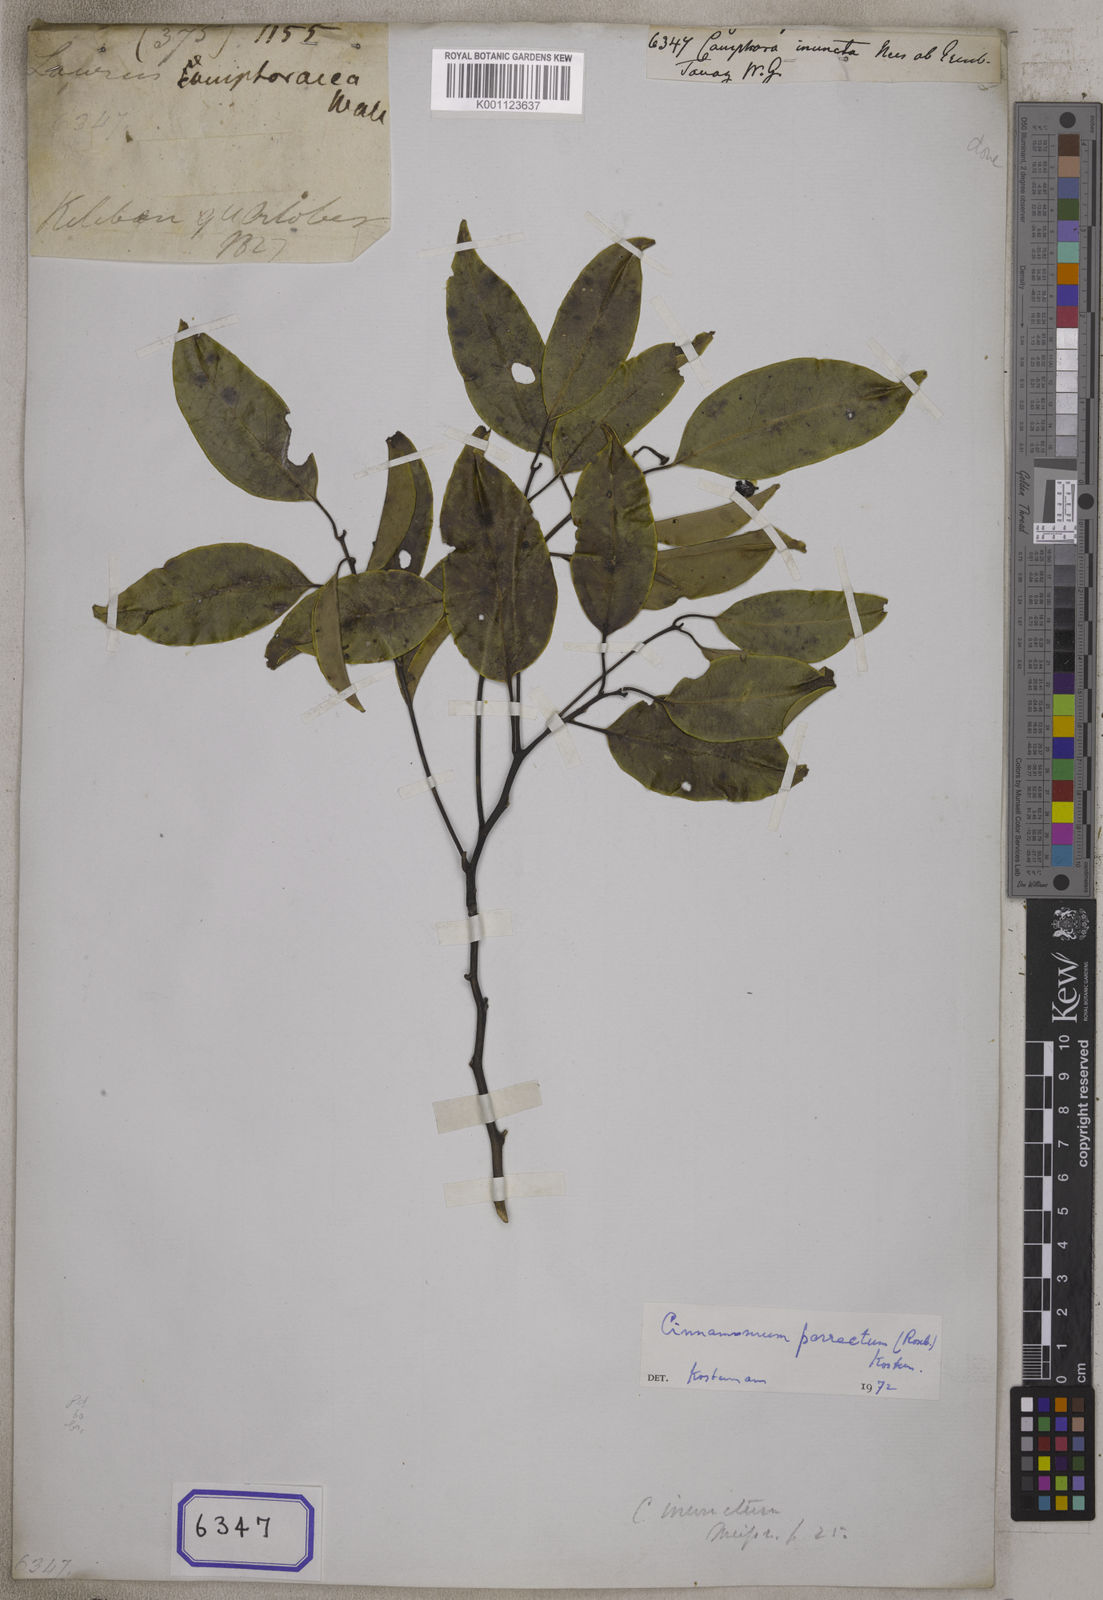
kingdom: Plantae
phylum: Tracheophyta
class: Magnoliopsida
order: Laurales
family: Lauraceae
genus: Cinnamomum
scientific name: Cinnamomum parthenoxylon
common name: Martaban camphor wood
